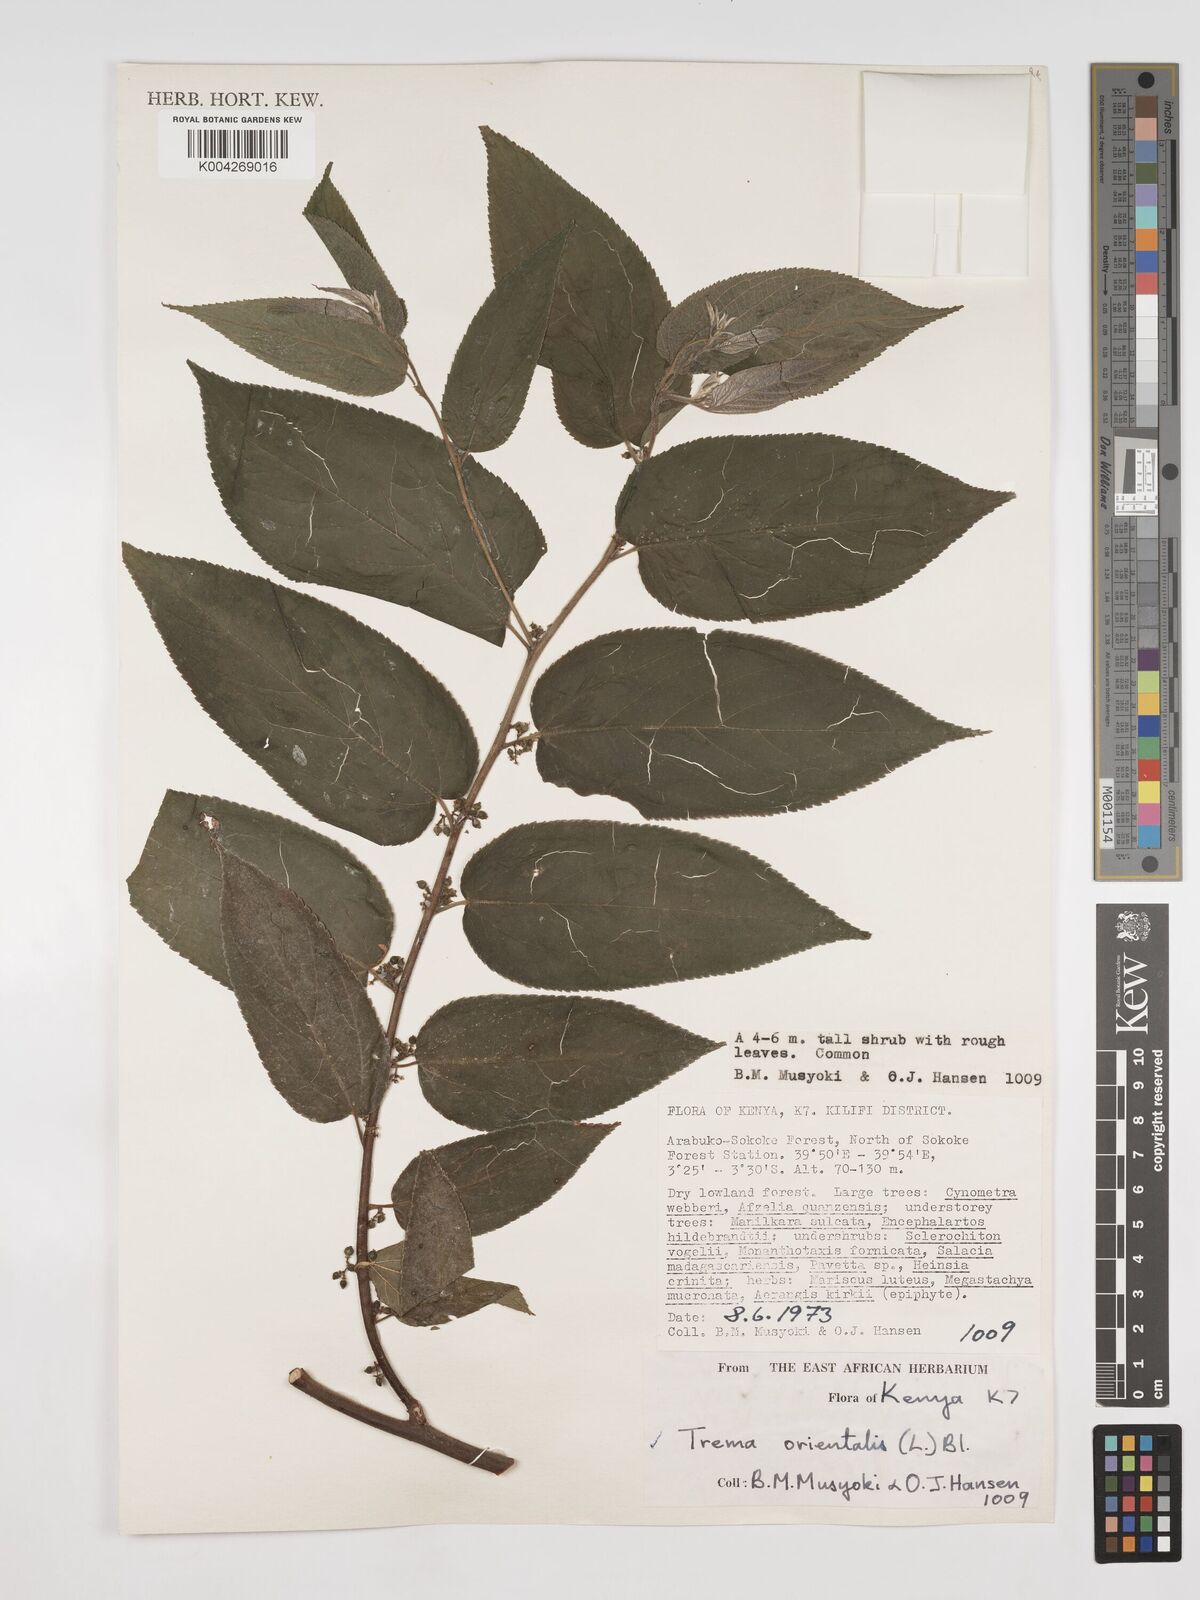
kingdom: Plantae
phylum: Tracheophyta
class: Magnoliopsida
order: Rosales
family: Cannabaceae
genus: Trema
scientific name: Trema orientale
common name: Indian charcoal tree
